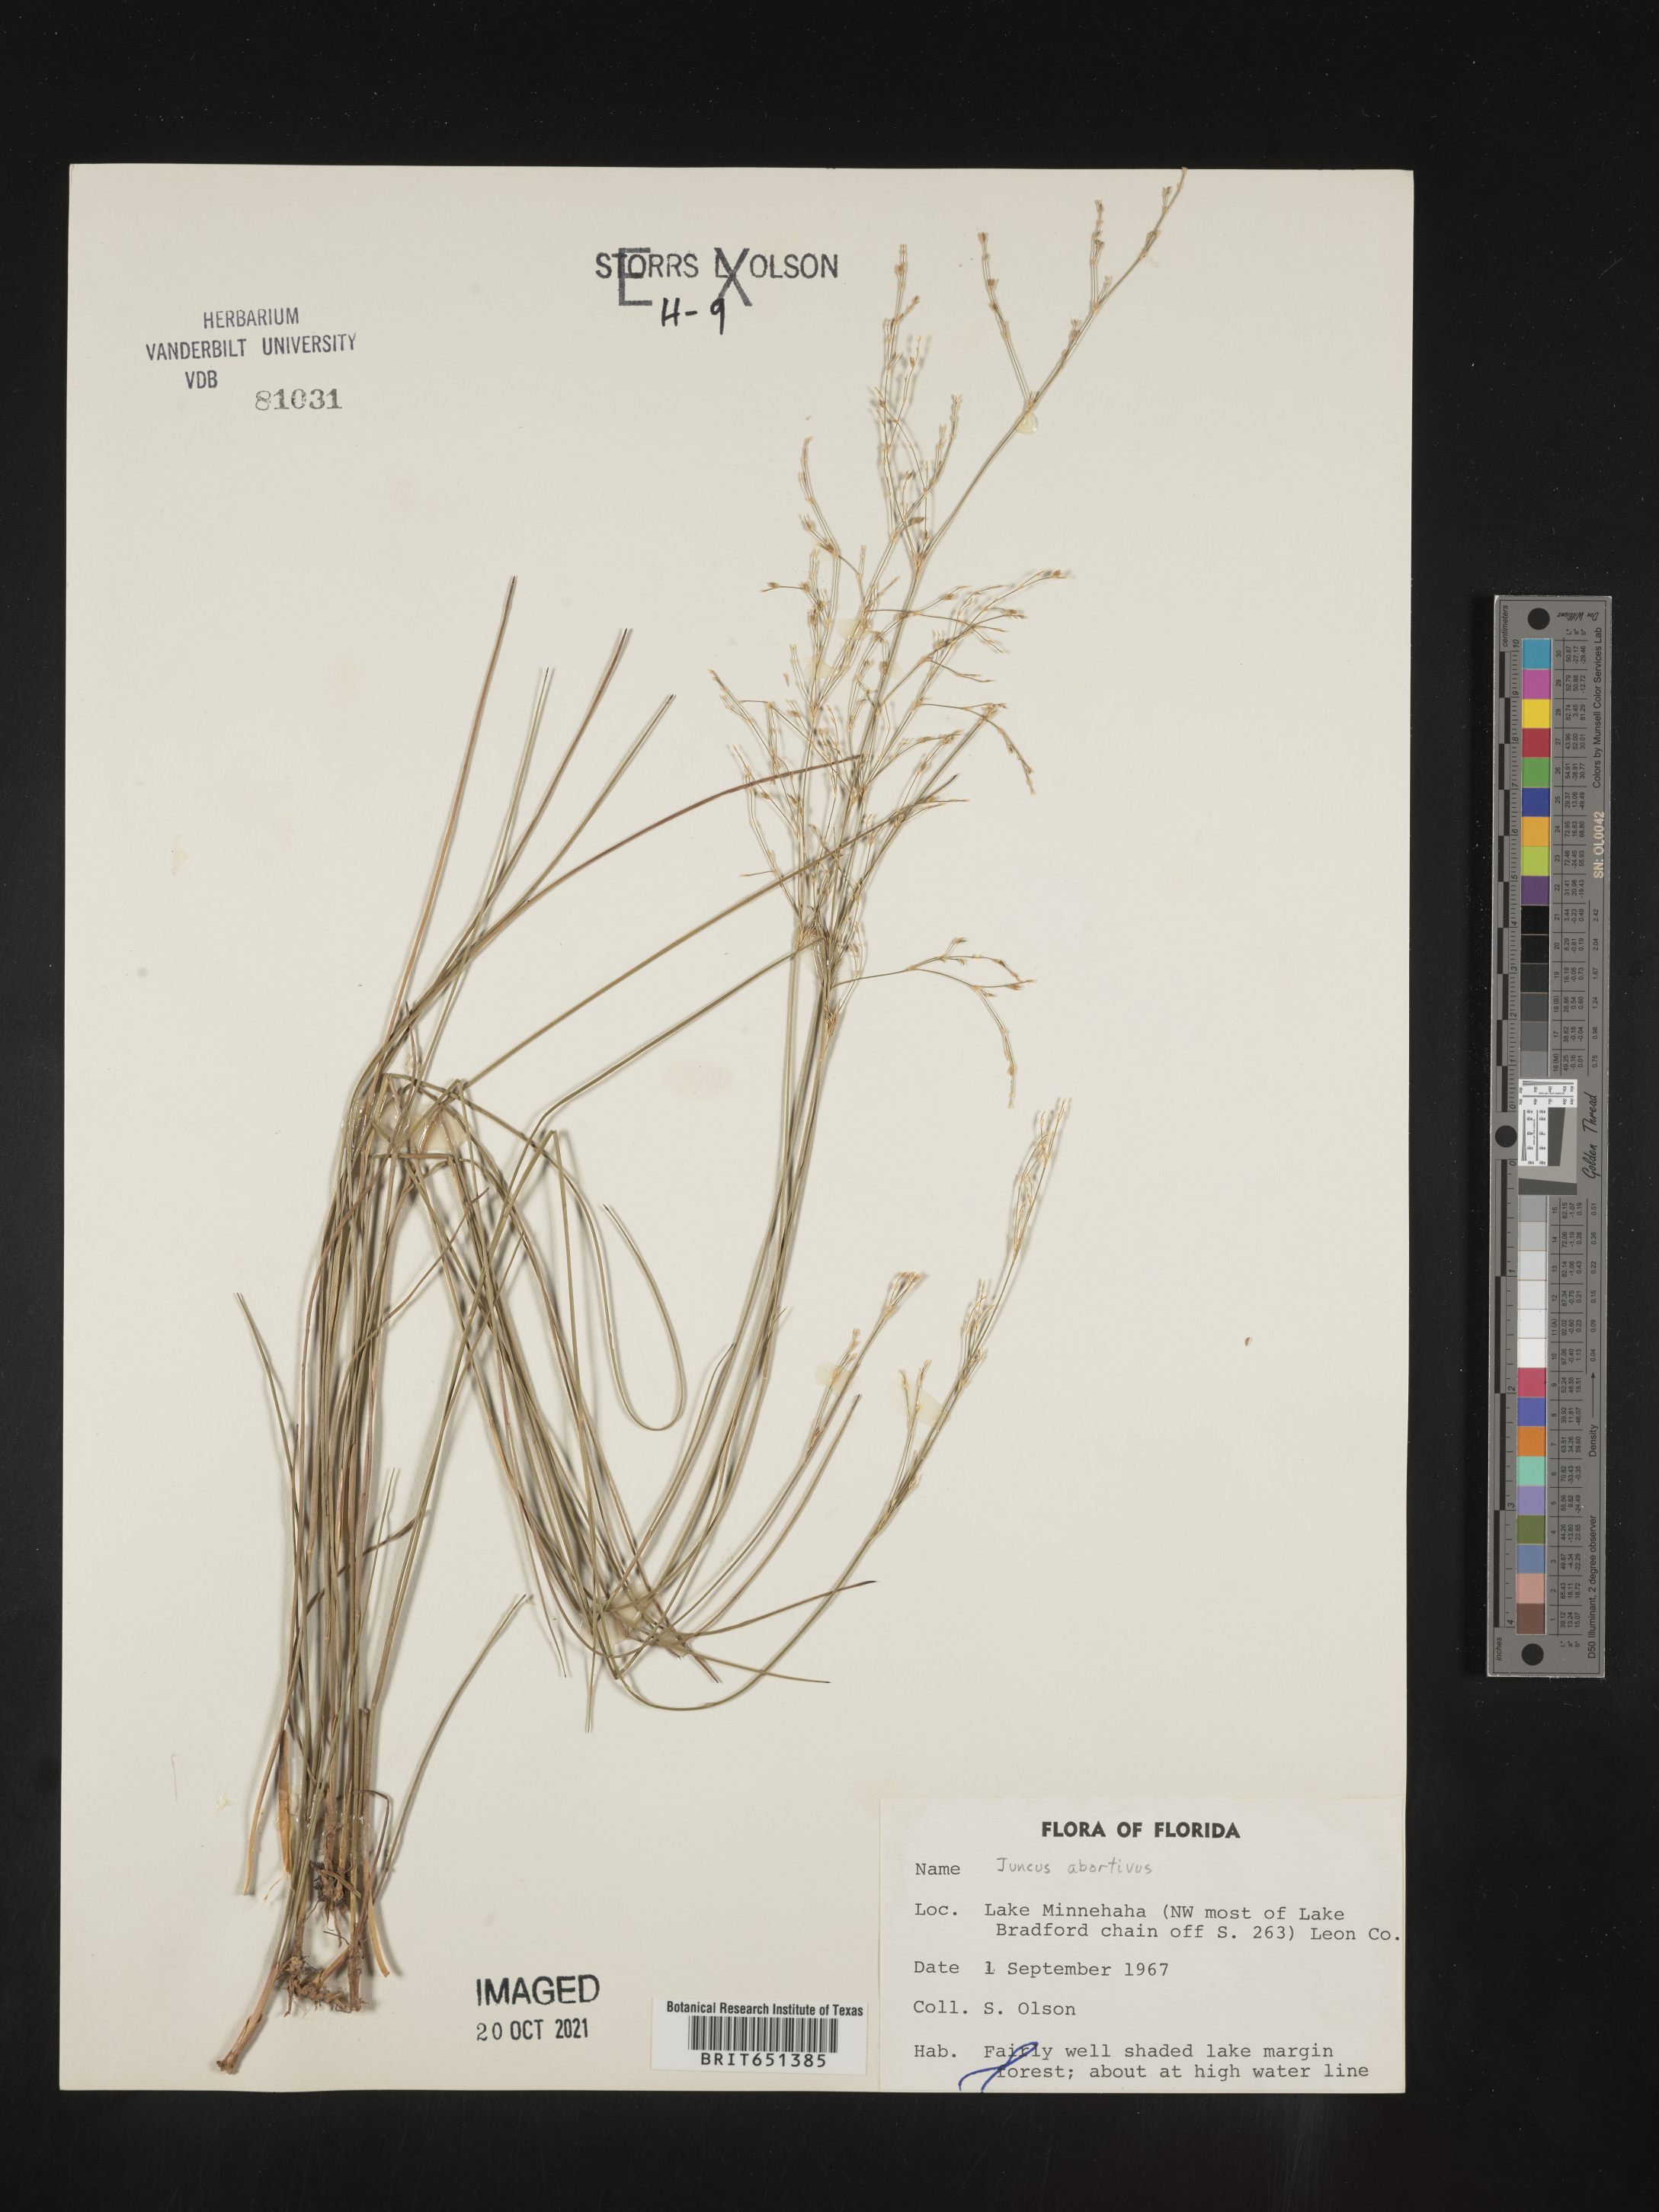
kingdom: Plantae
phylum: Tracheophyta
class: Liliopsida
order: Poales
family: Juncaceae
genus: Juncus
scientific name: Juncus abortivus
